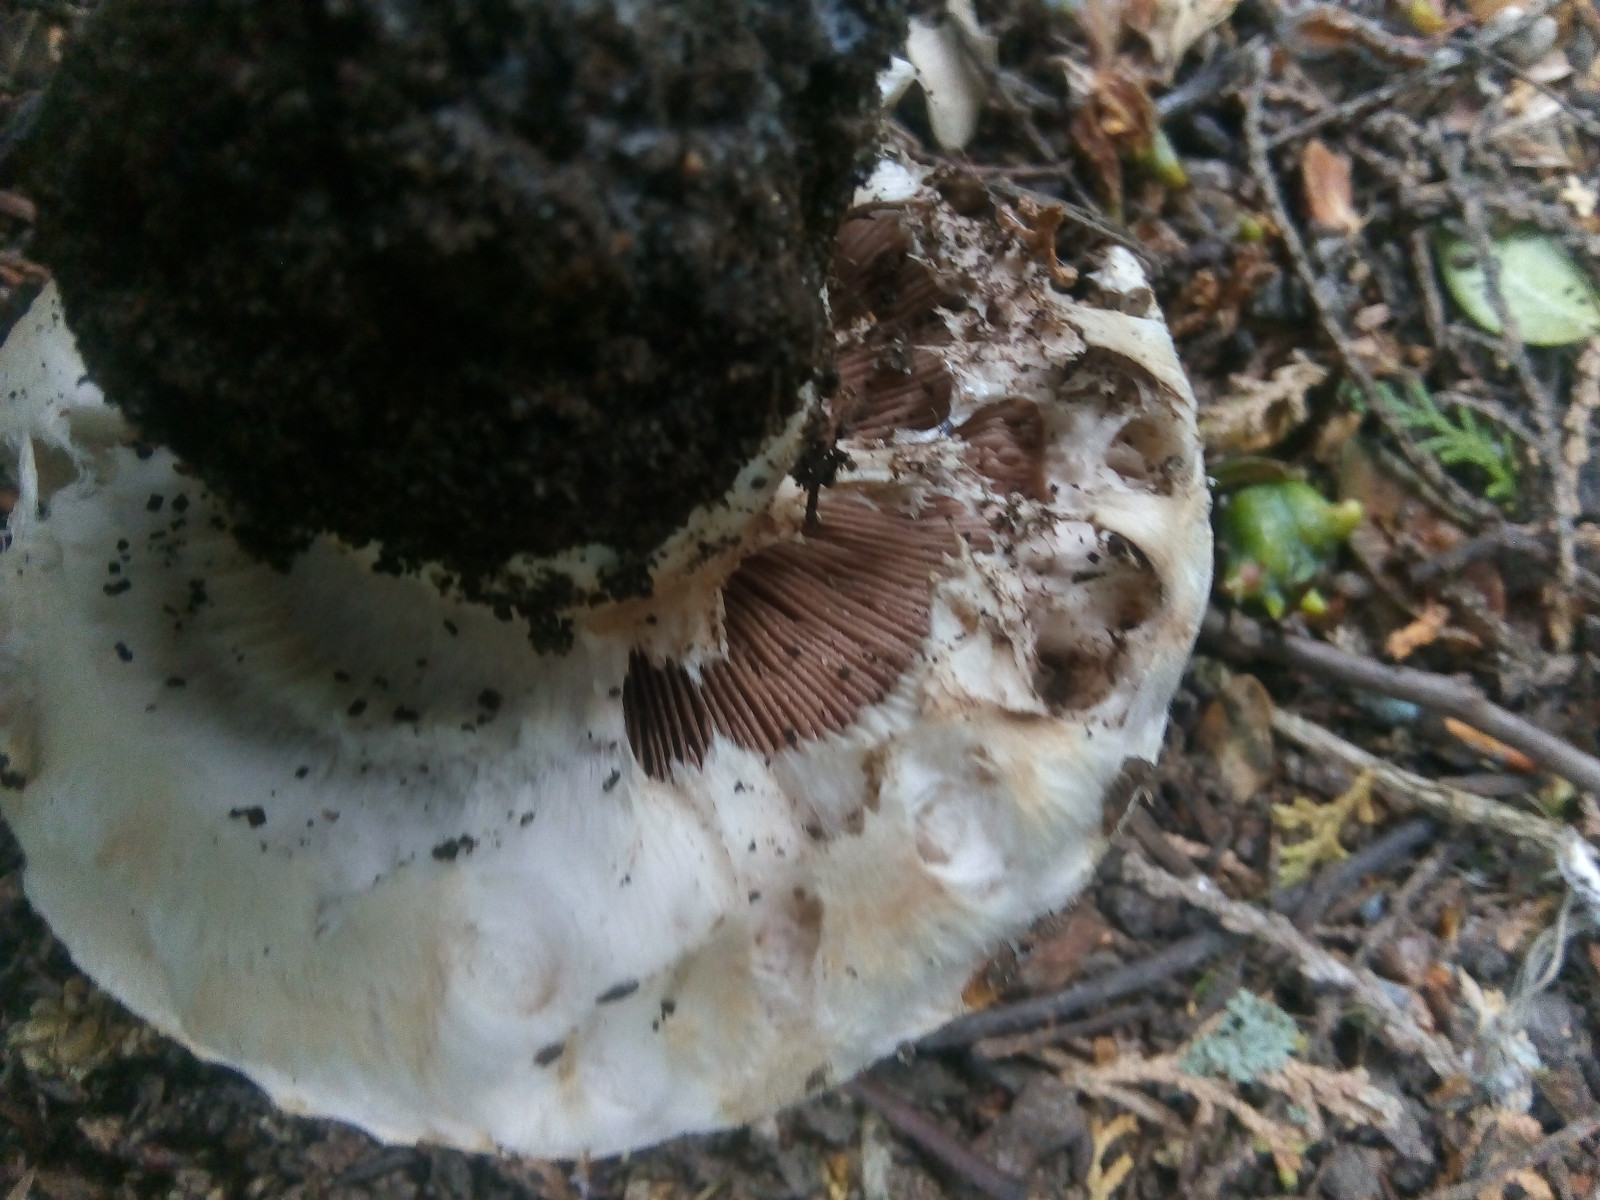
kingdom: Fungi
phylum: Basidiomycota
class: Agaricomycetes
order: Agaricales
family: Agaricaceae
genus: Agaricus
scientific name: Agaricus bernardii
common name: strandengs-champignon
